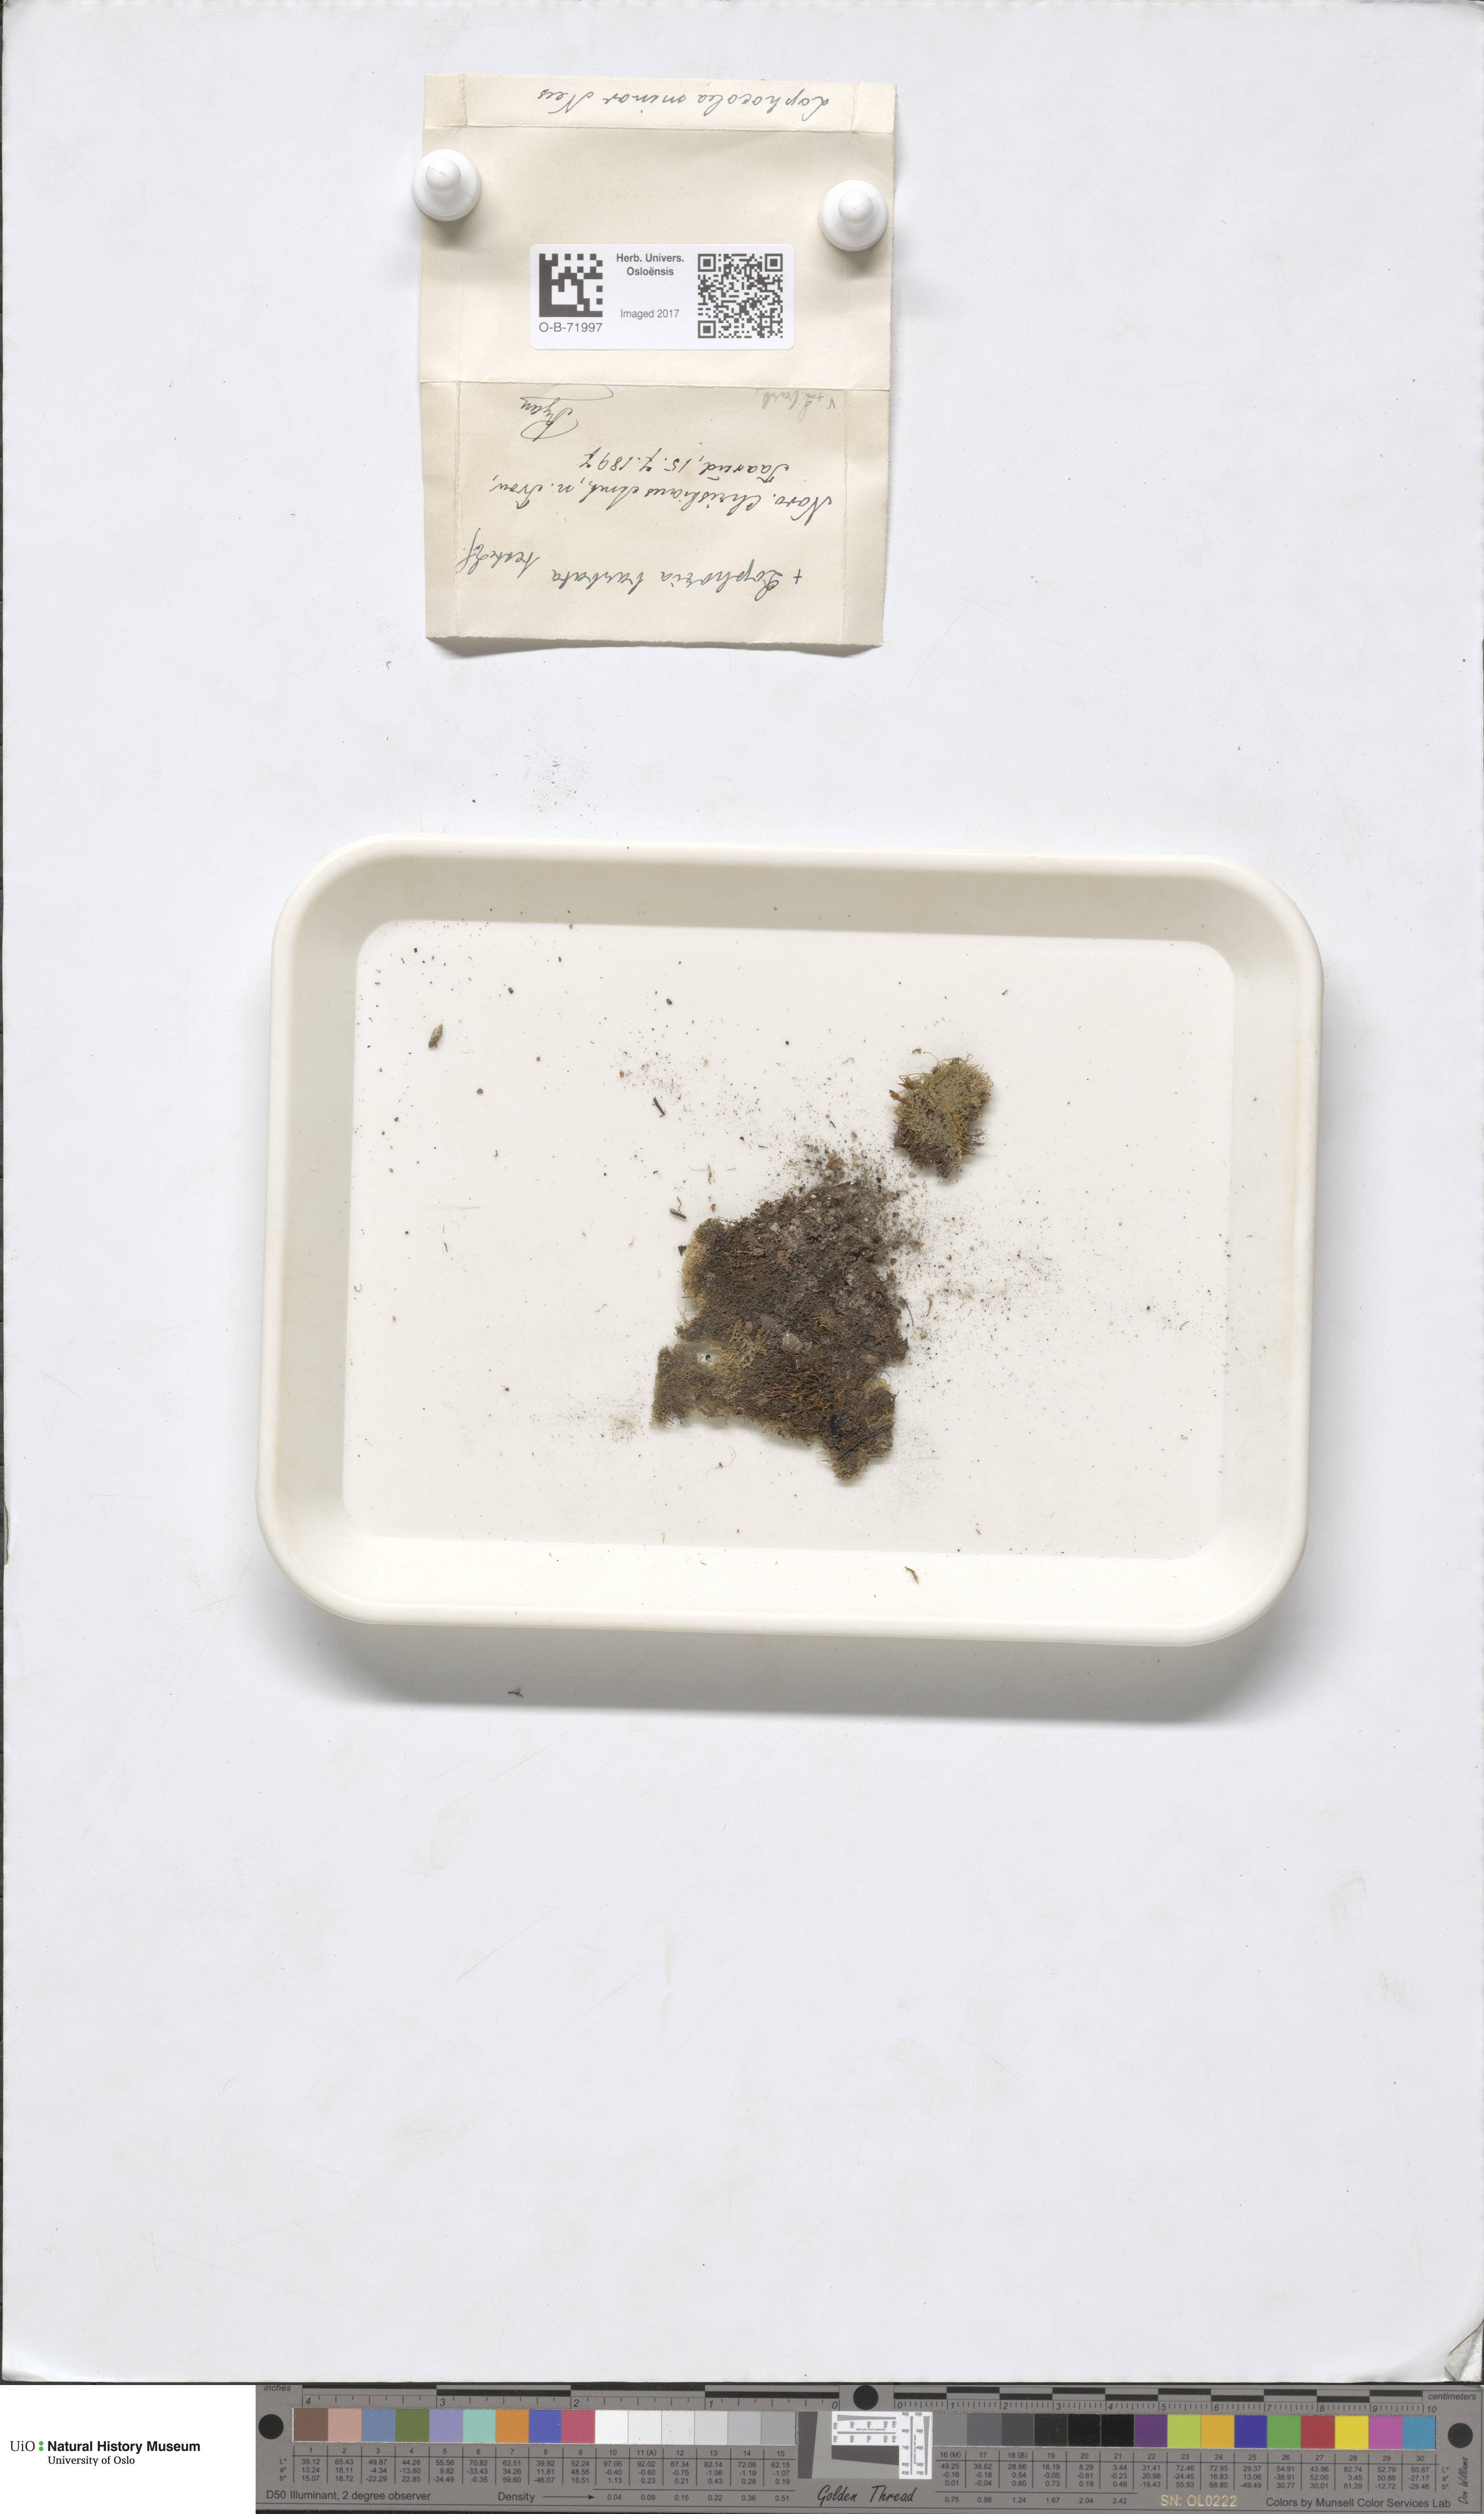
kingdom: Plantae
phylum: Marchantiophyta
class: Jungermanniopsida
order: Jungermanniales
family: Lophocoleaceae
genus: Lophocolea
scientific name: Lophocolea bidentata
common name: Bifid crestwort
